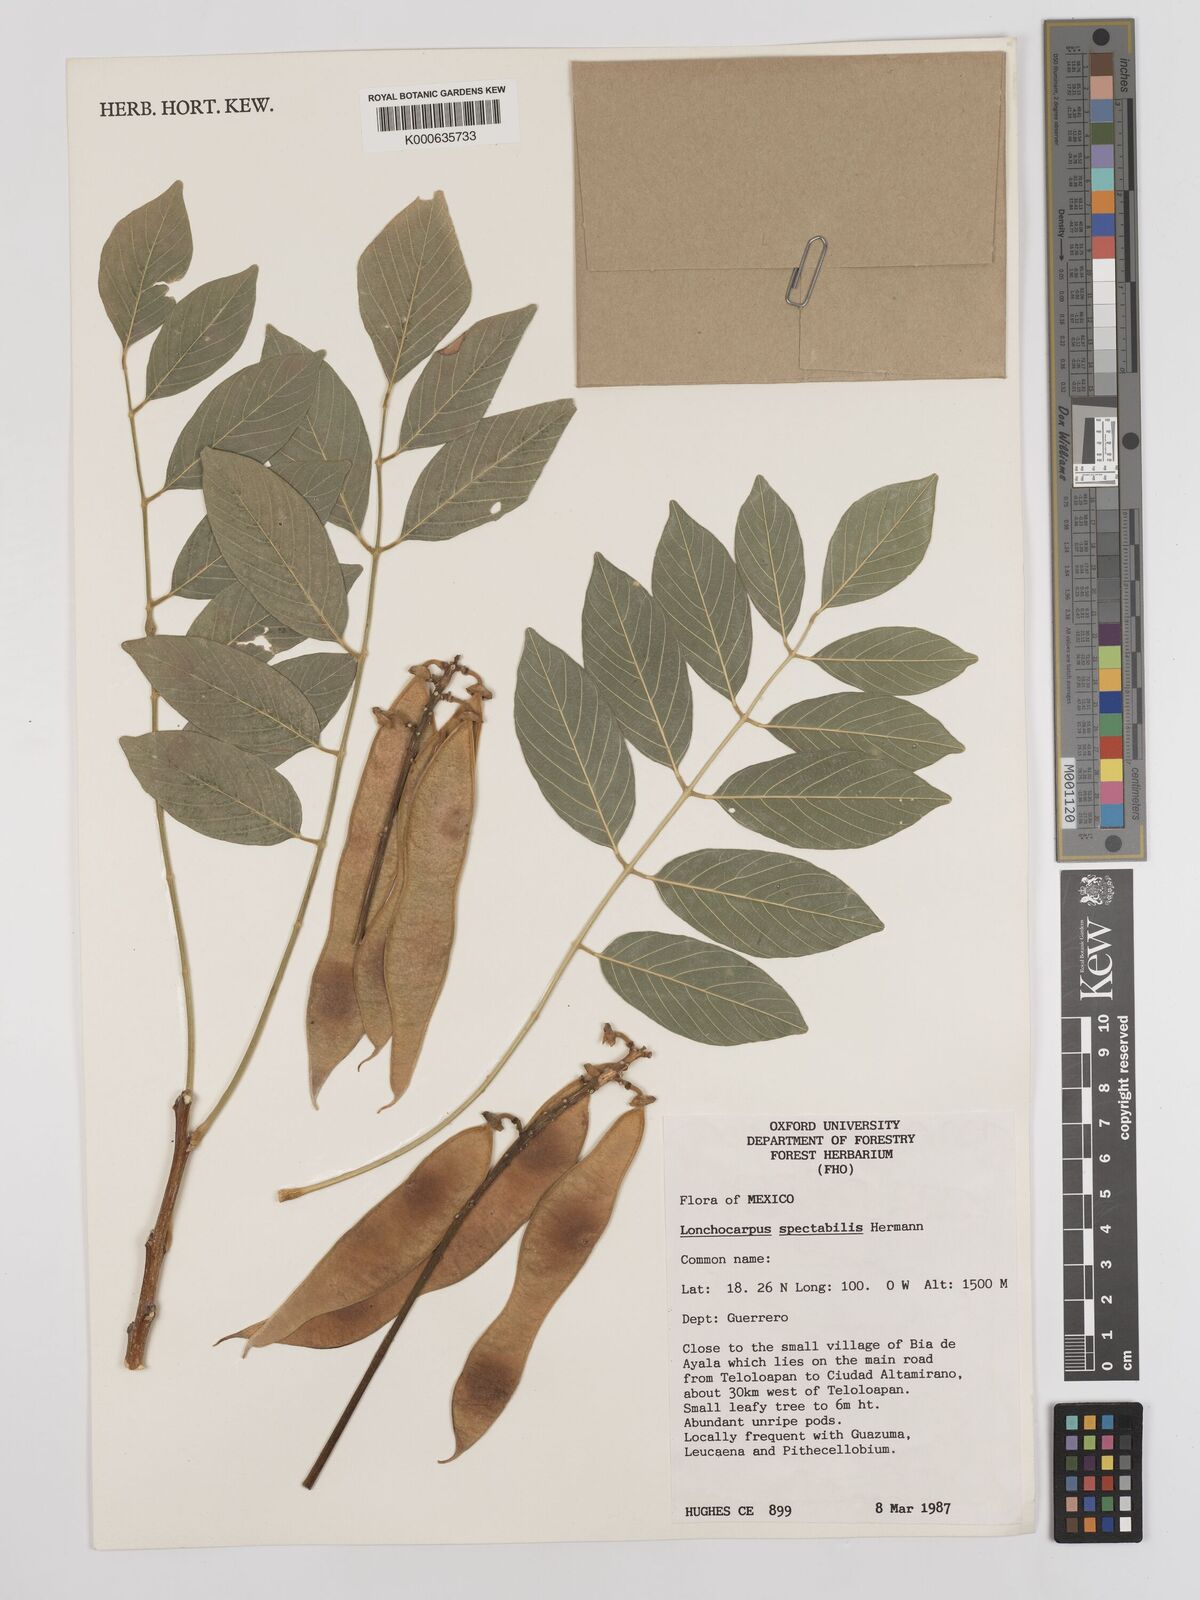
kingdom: Plantae
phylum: Tracheophyta
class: Magnoliopsida
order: Fabales
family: Fabaceae
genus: Lonchocarpus
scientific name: Lonchocarpus spectabilis
